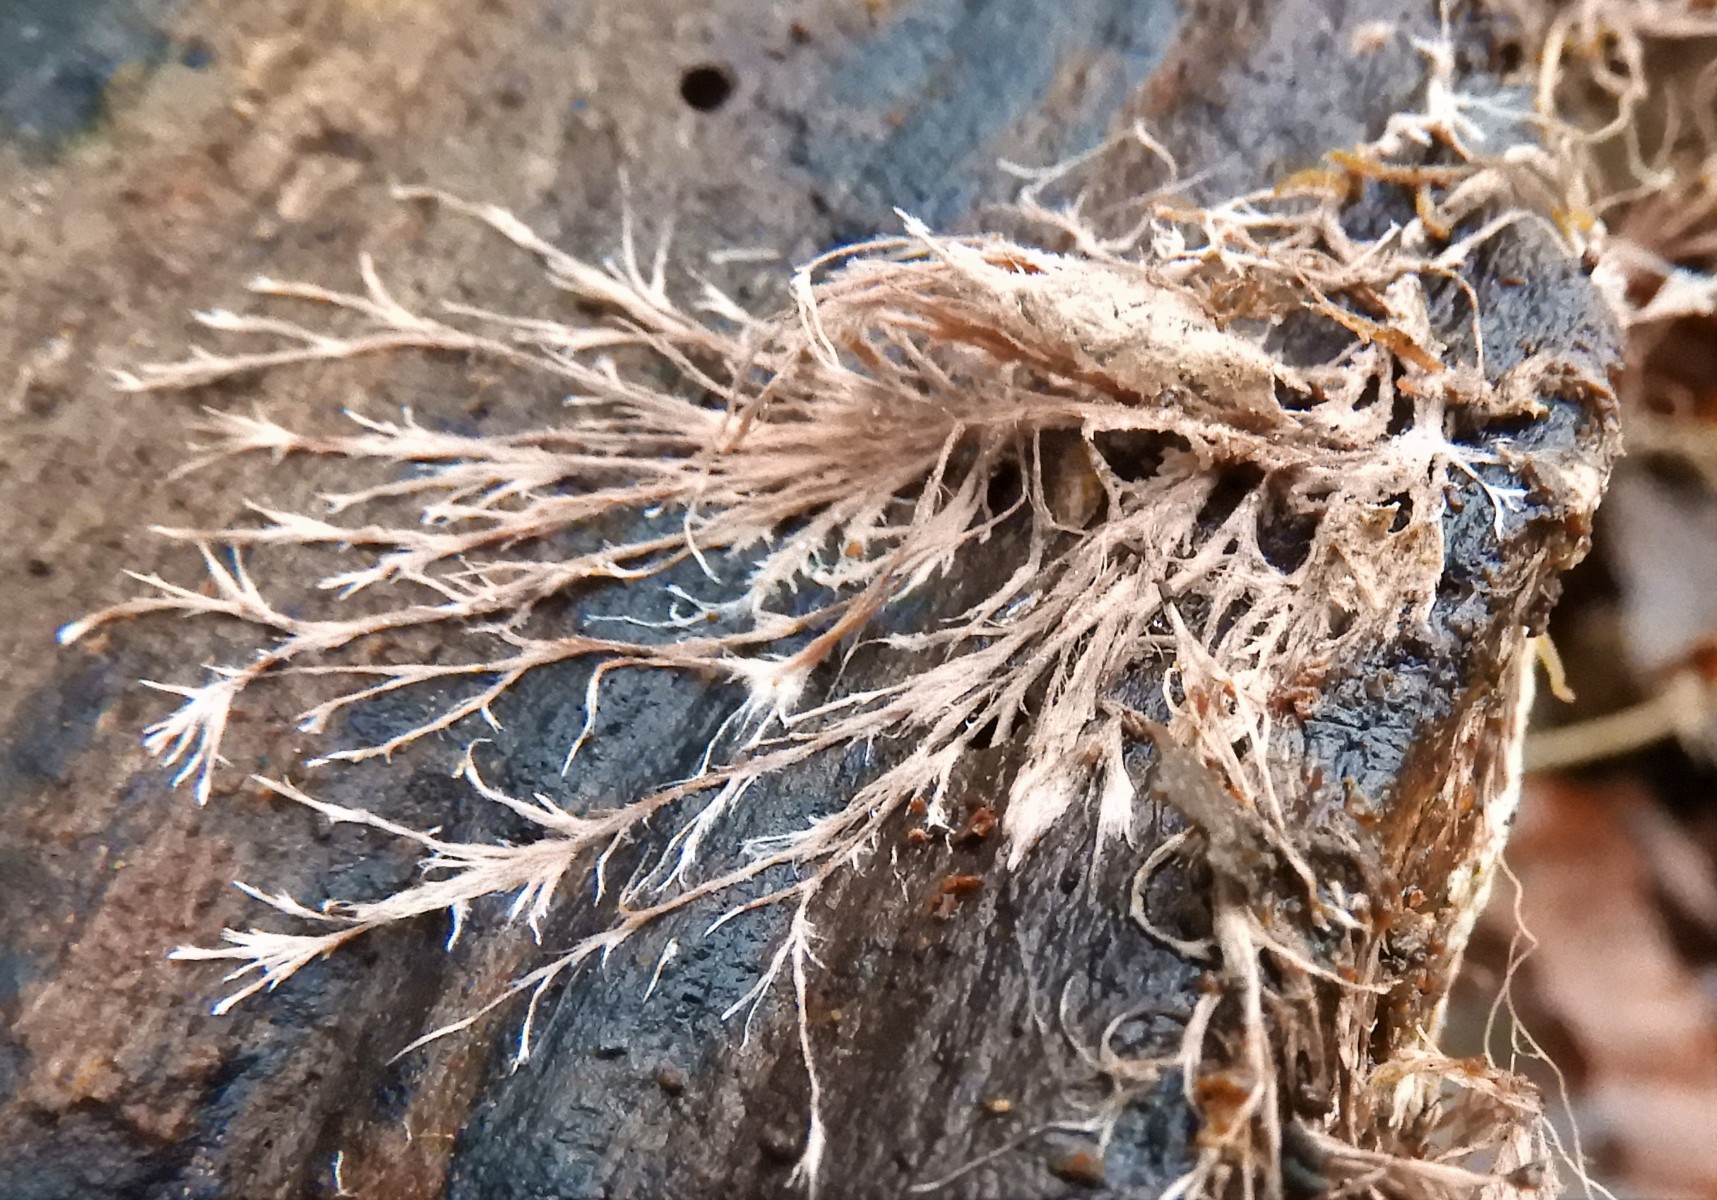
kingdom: Fungi
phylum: Basidiomycota
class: Agaricomycetes
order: Polyporales
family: Steccherinaceae
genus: Steccherinum
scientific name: Steccherinum fimbriatum
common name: trådet skønpig
